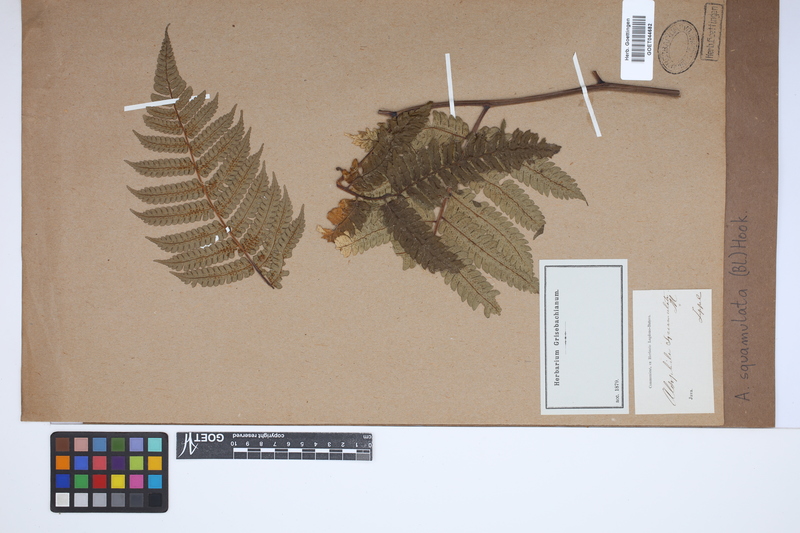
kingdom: Plantae
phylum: Tracheophyta
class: Polypodiopsida
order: Cyatheales
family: Cyatheaceae
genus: Gymnosphaera
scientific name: Gymnosphaera commutata
